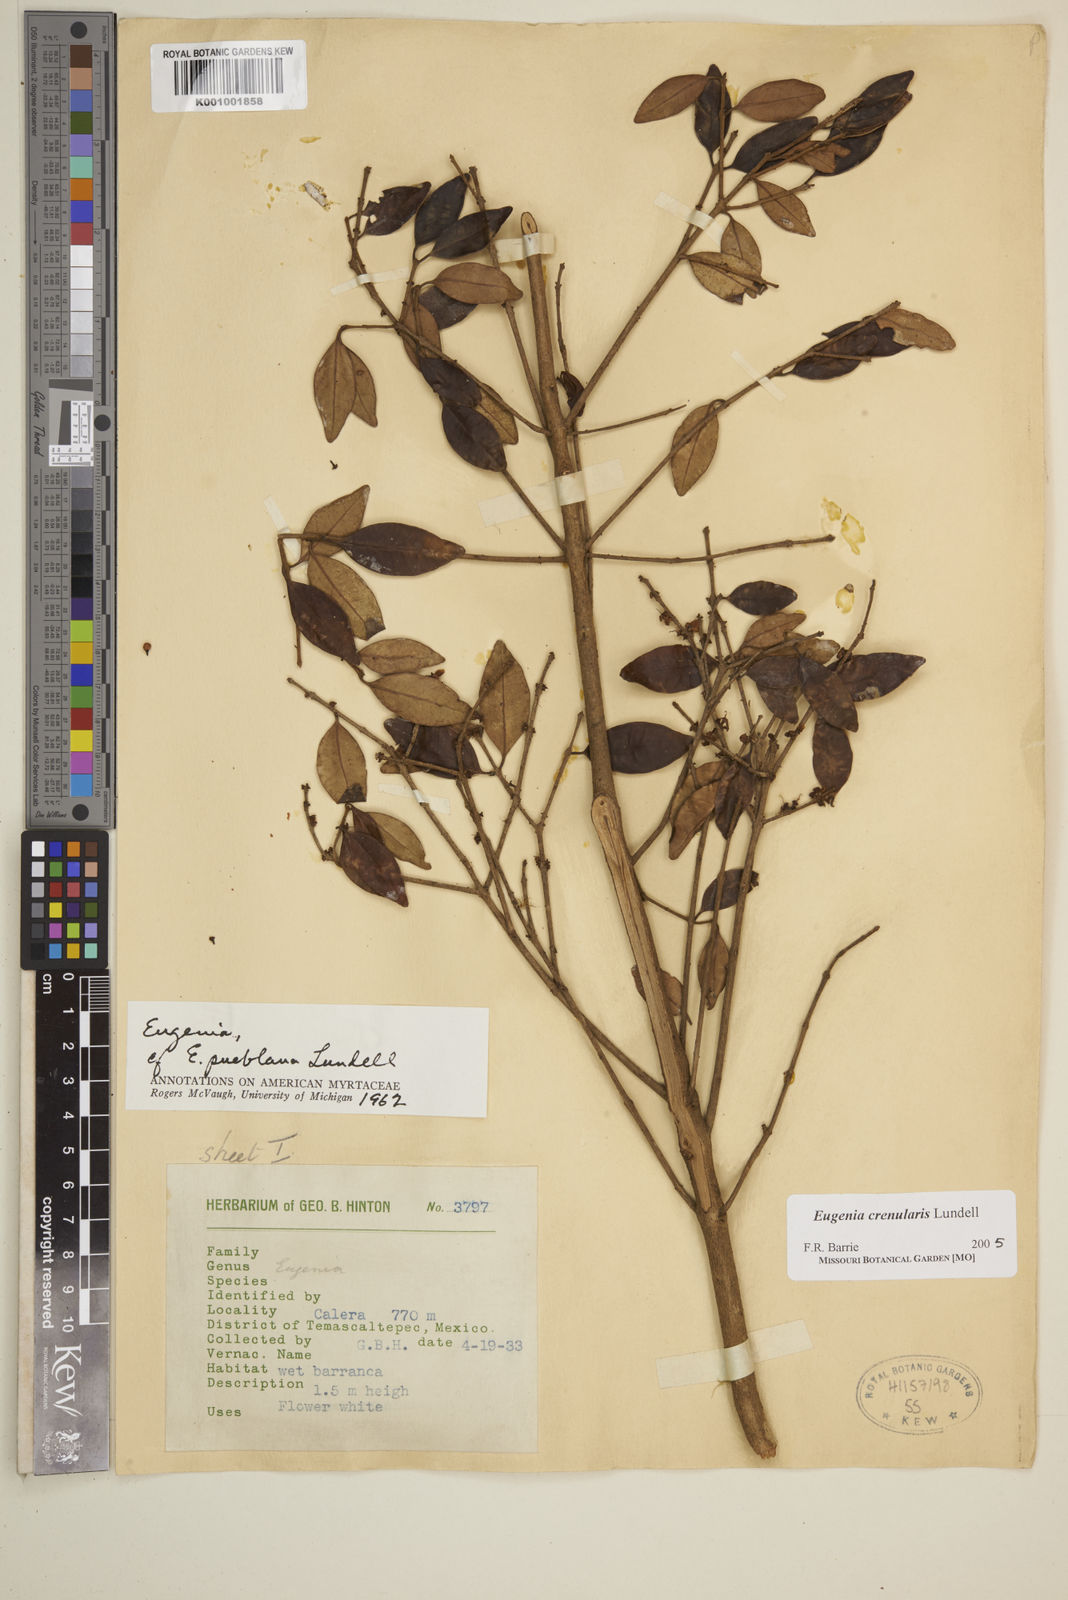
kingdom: Plantae
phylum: Tracheophyta
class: Magnoliopsida
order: Myrtales
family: Myrtaceae
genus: Eugenia
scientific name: Eugenia crenularis
